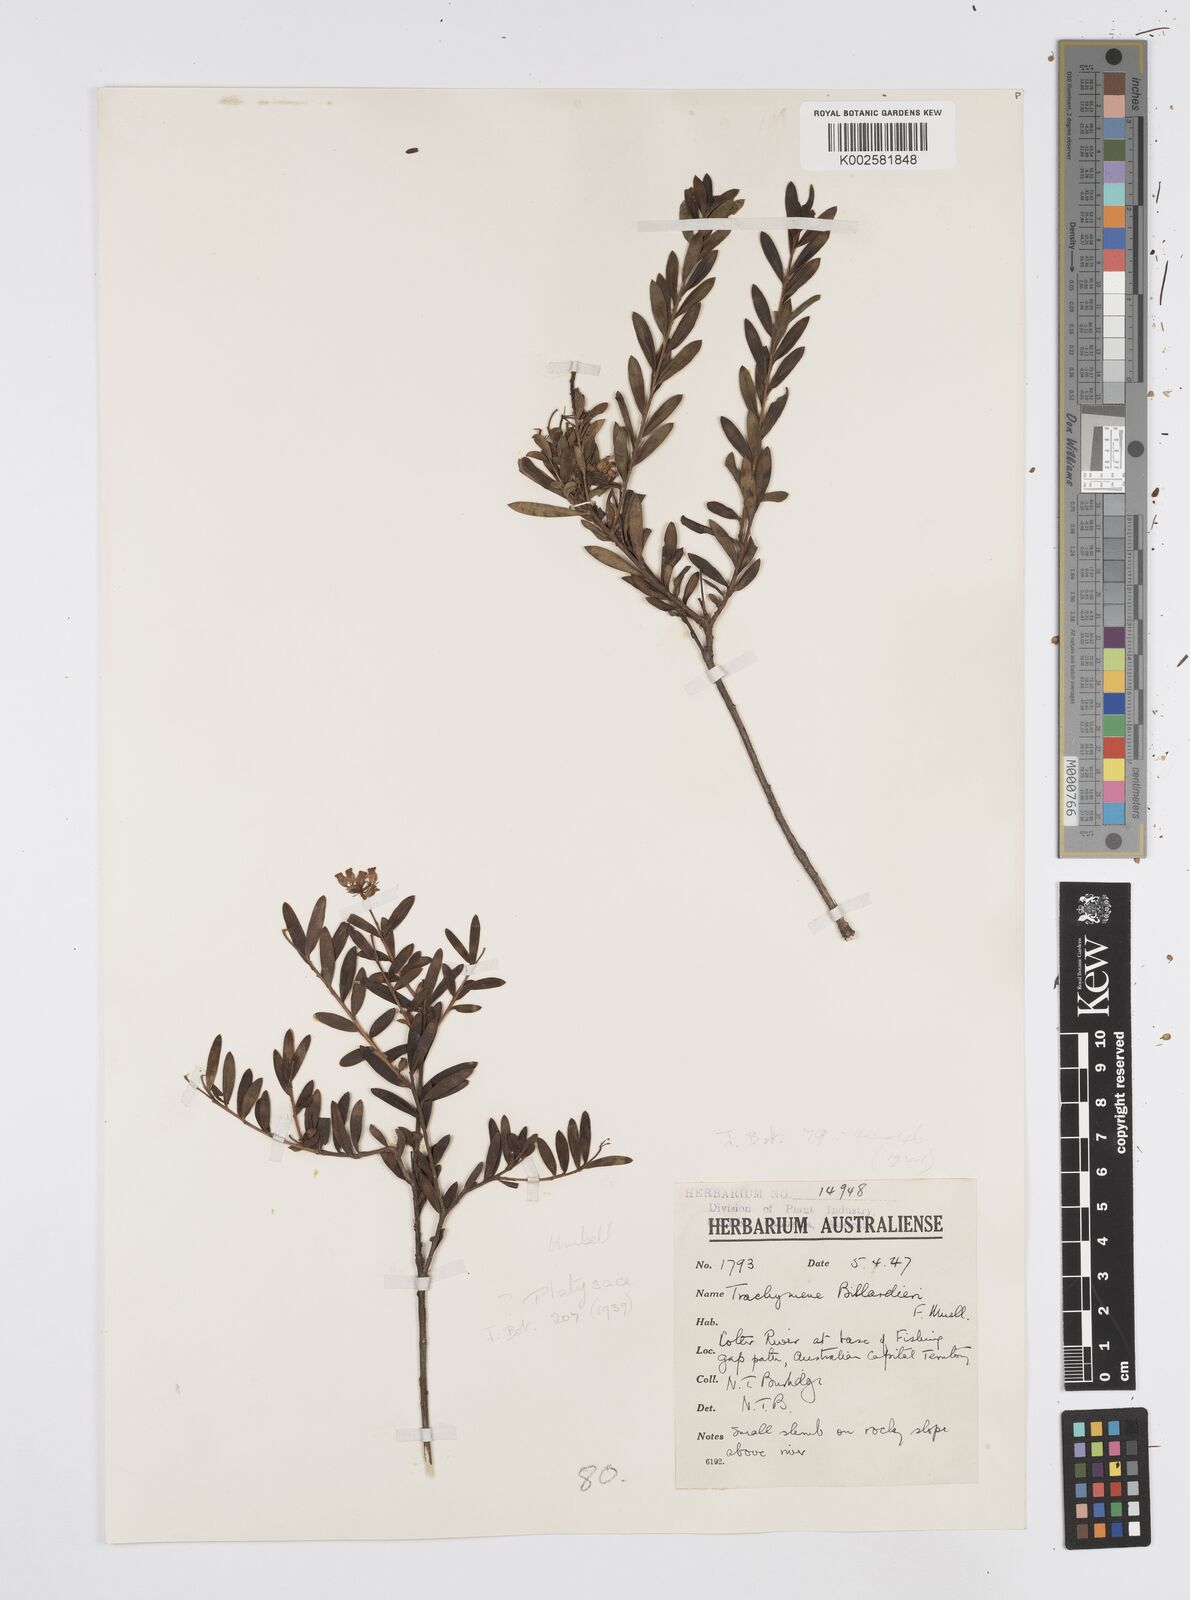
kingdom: Plantae
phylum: Tracheophyta
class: Magnoliopsida
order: Apiales
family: Apiaceae
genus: Platysace
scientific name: Platysace lanceolata
